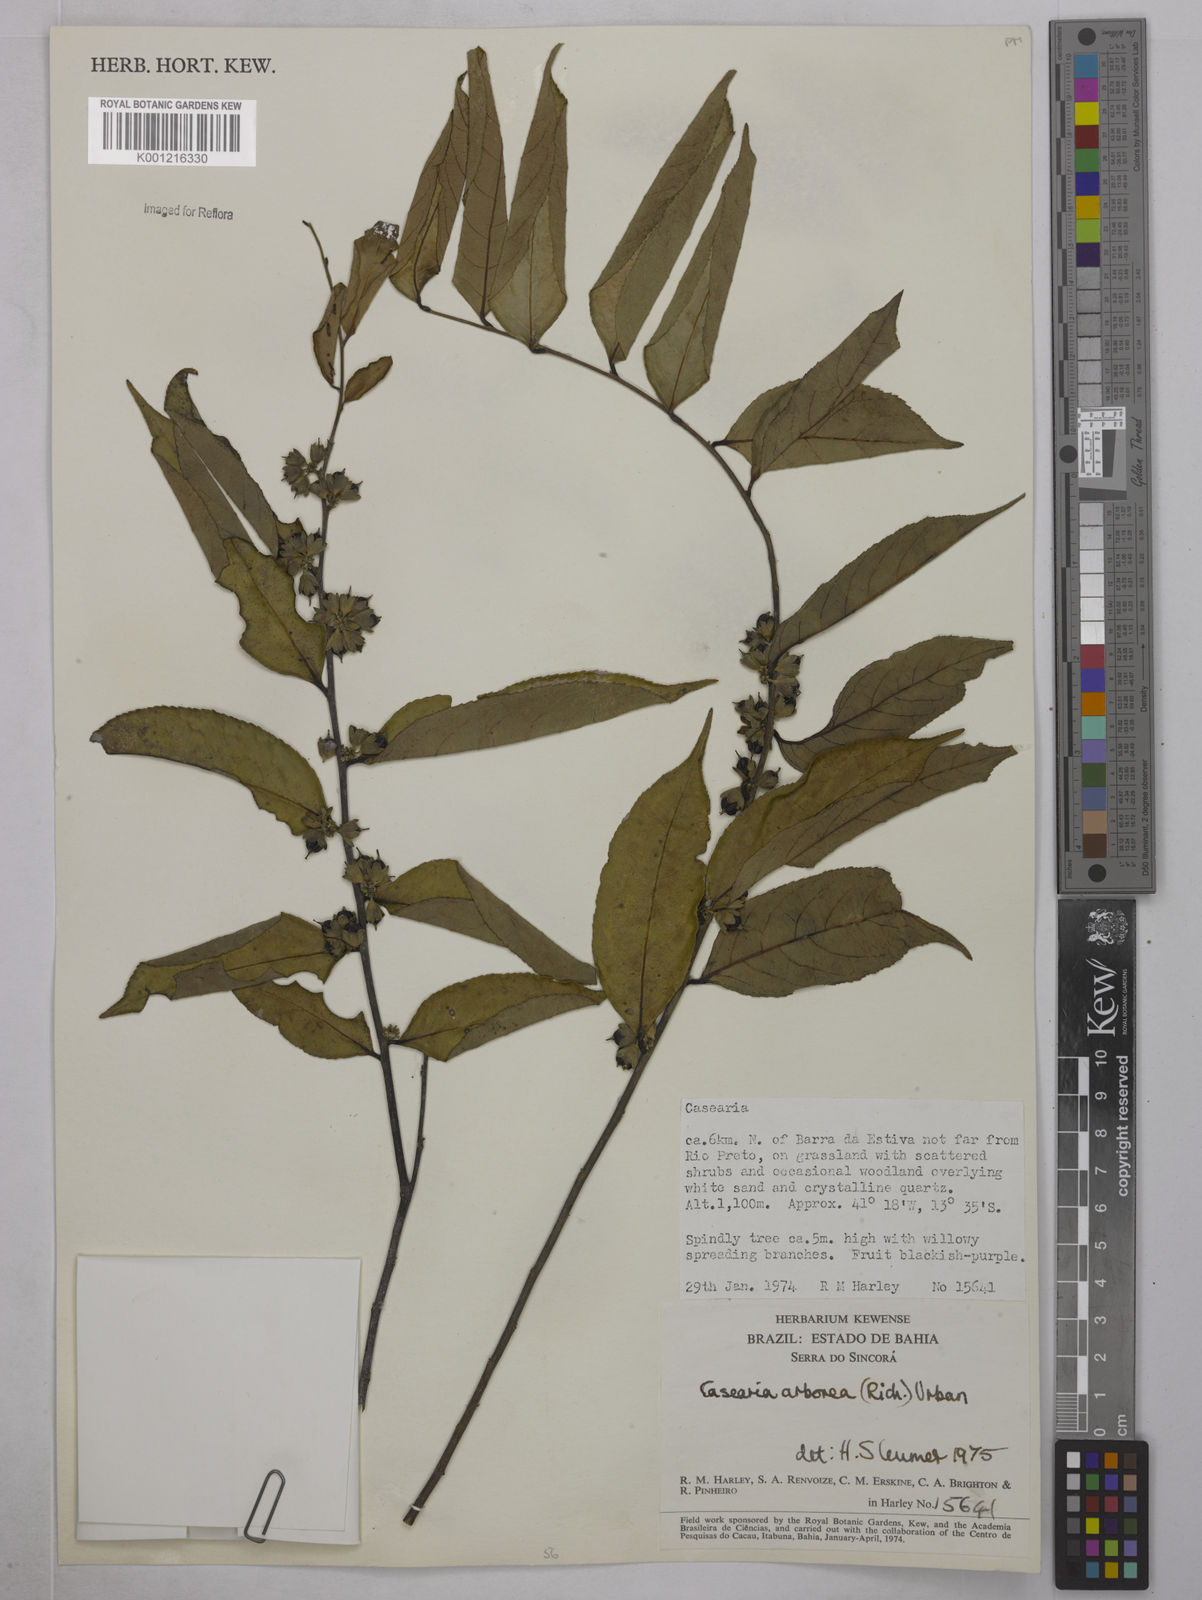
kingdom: Plantae
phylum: Tracheophyta
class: Magnoliopsida
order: Malpighiales
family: Salicaceae
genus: Casearia
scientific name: Casearia arborea
